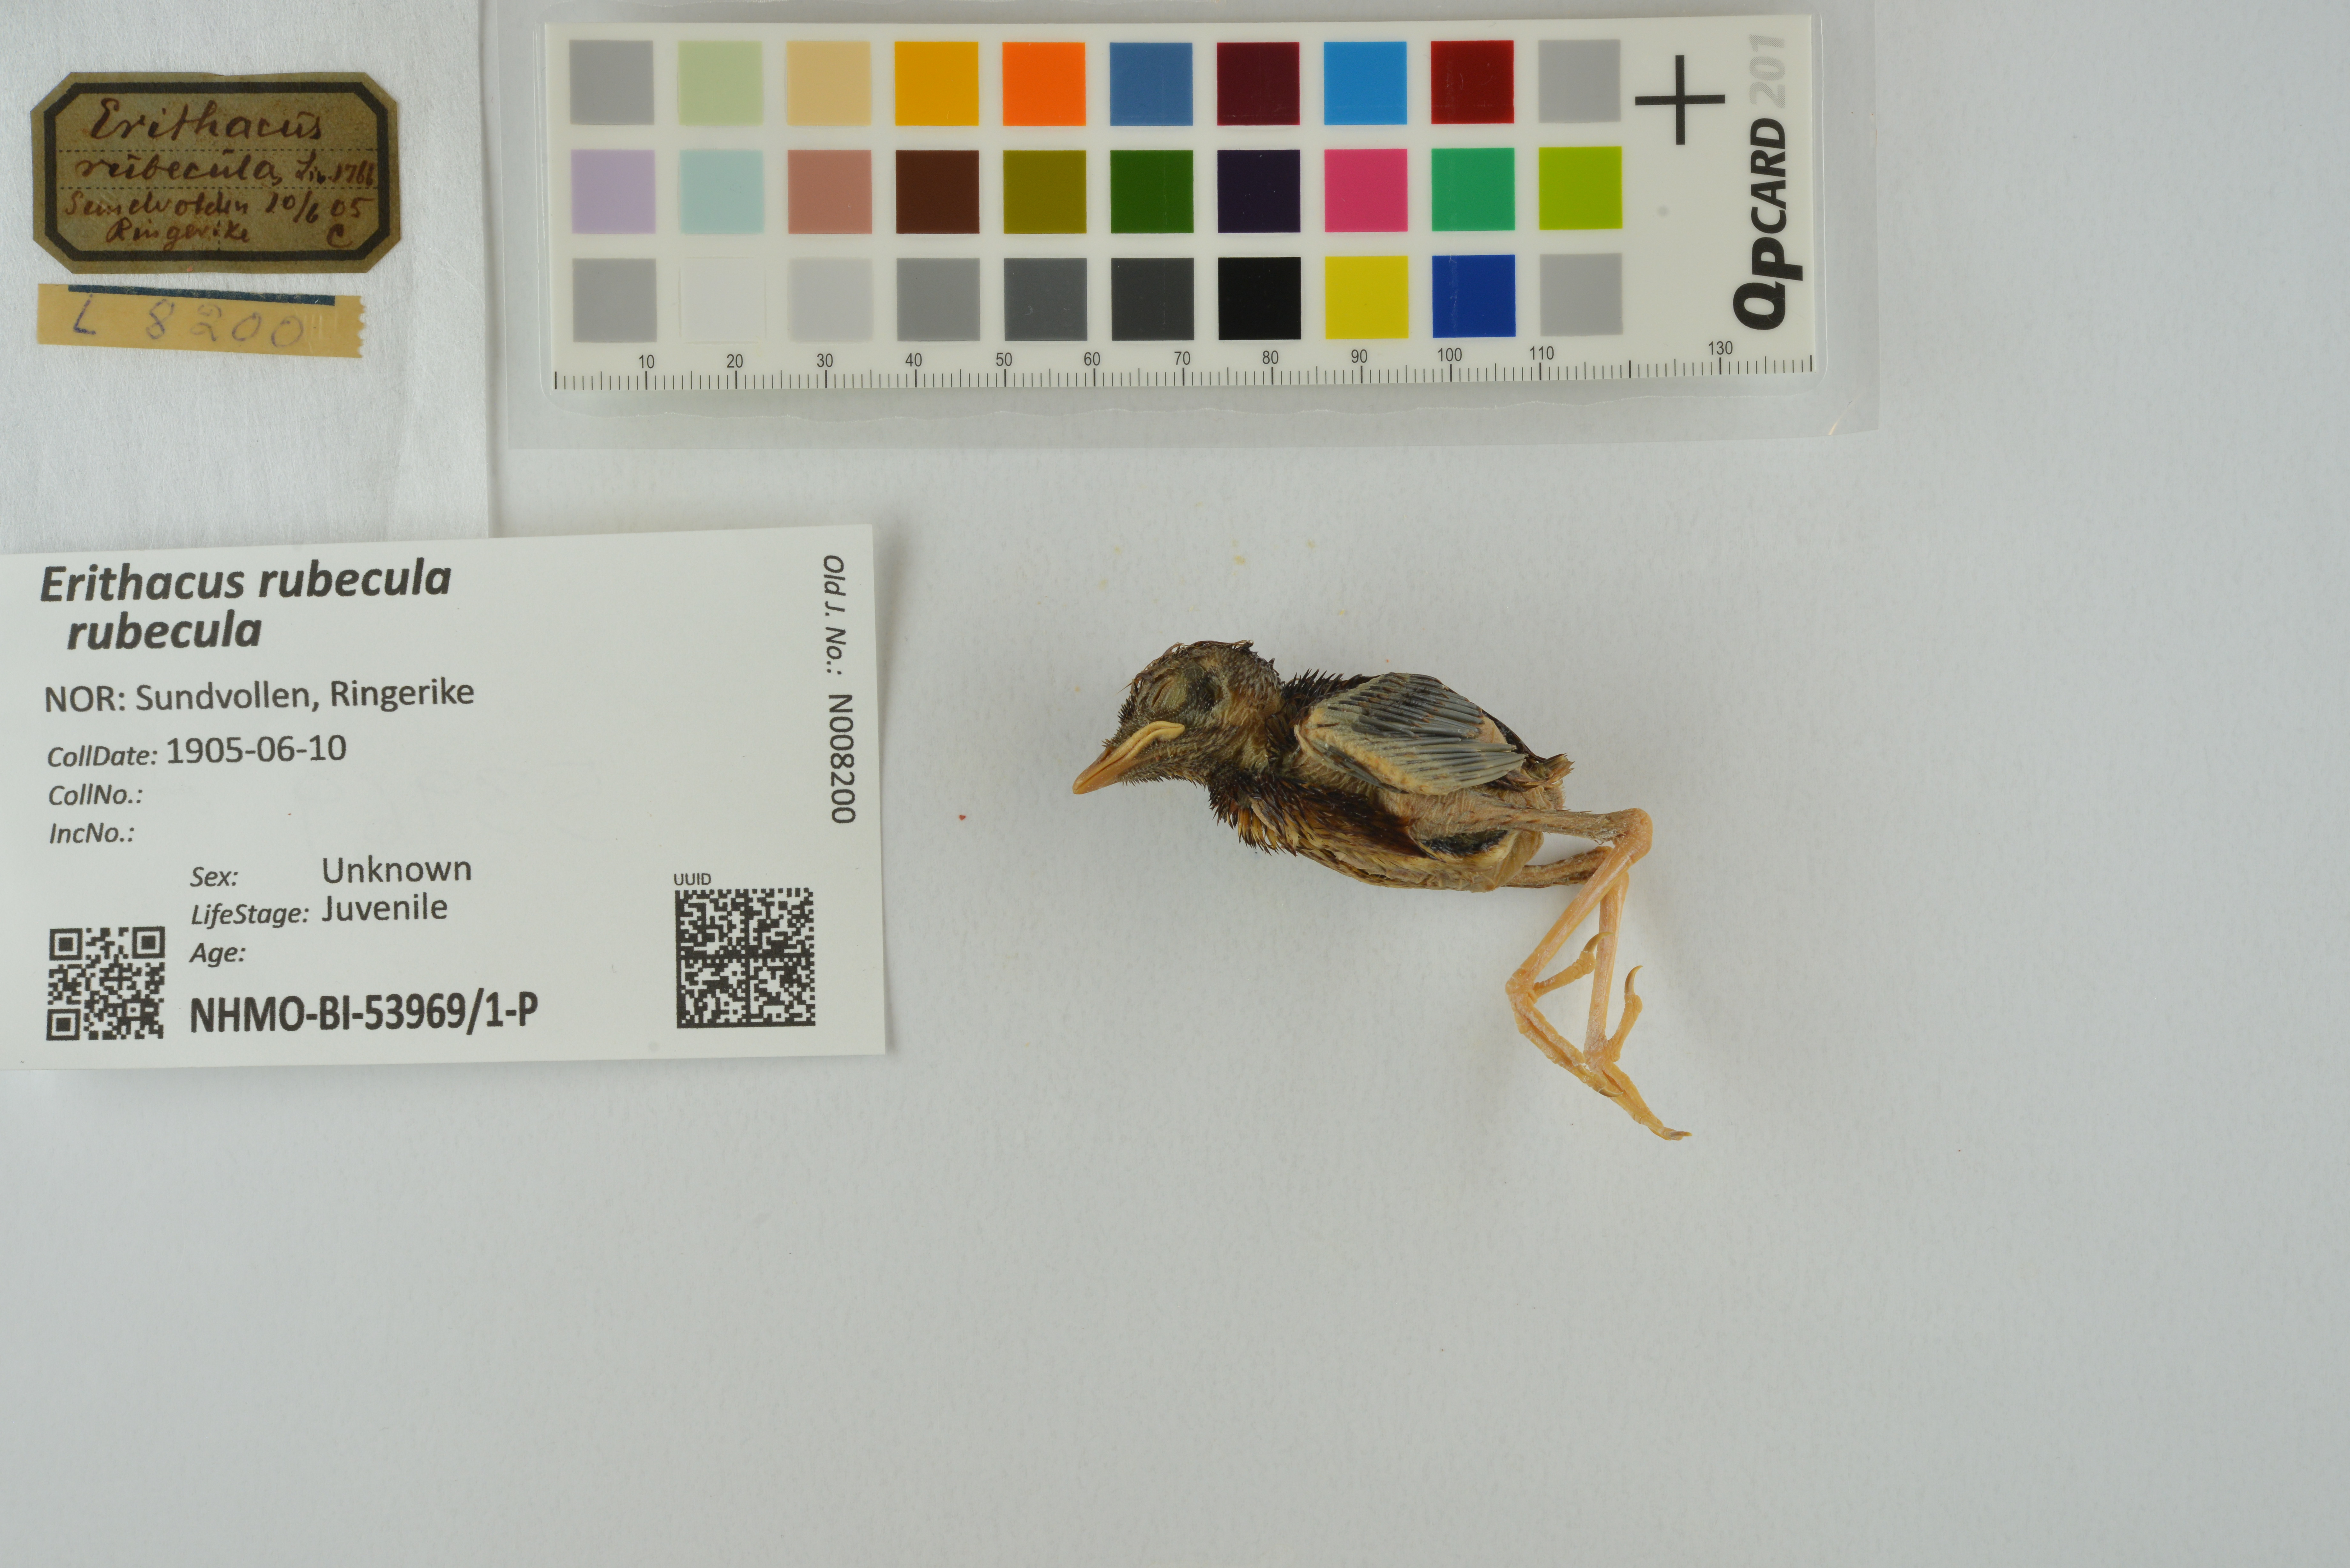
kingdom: Animalia
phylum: Chordata
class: Aves
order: Passeriformes
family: Muscicapidae
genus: Erithacus
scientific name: Erithacus rubecula
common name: European robin
